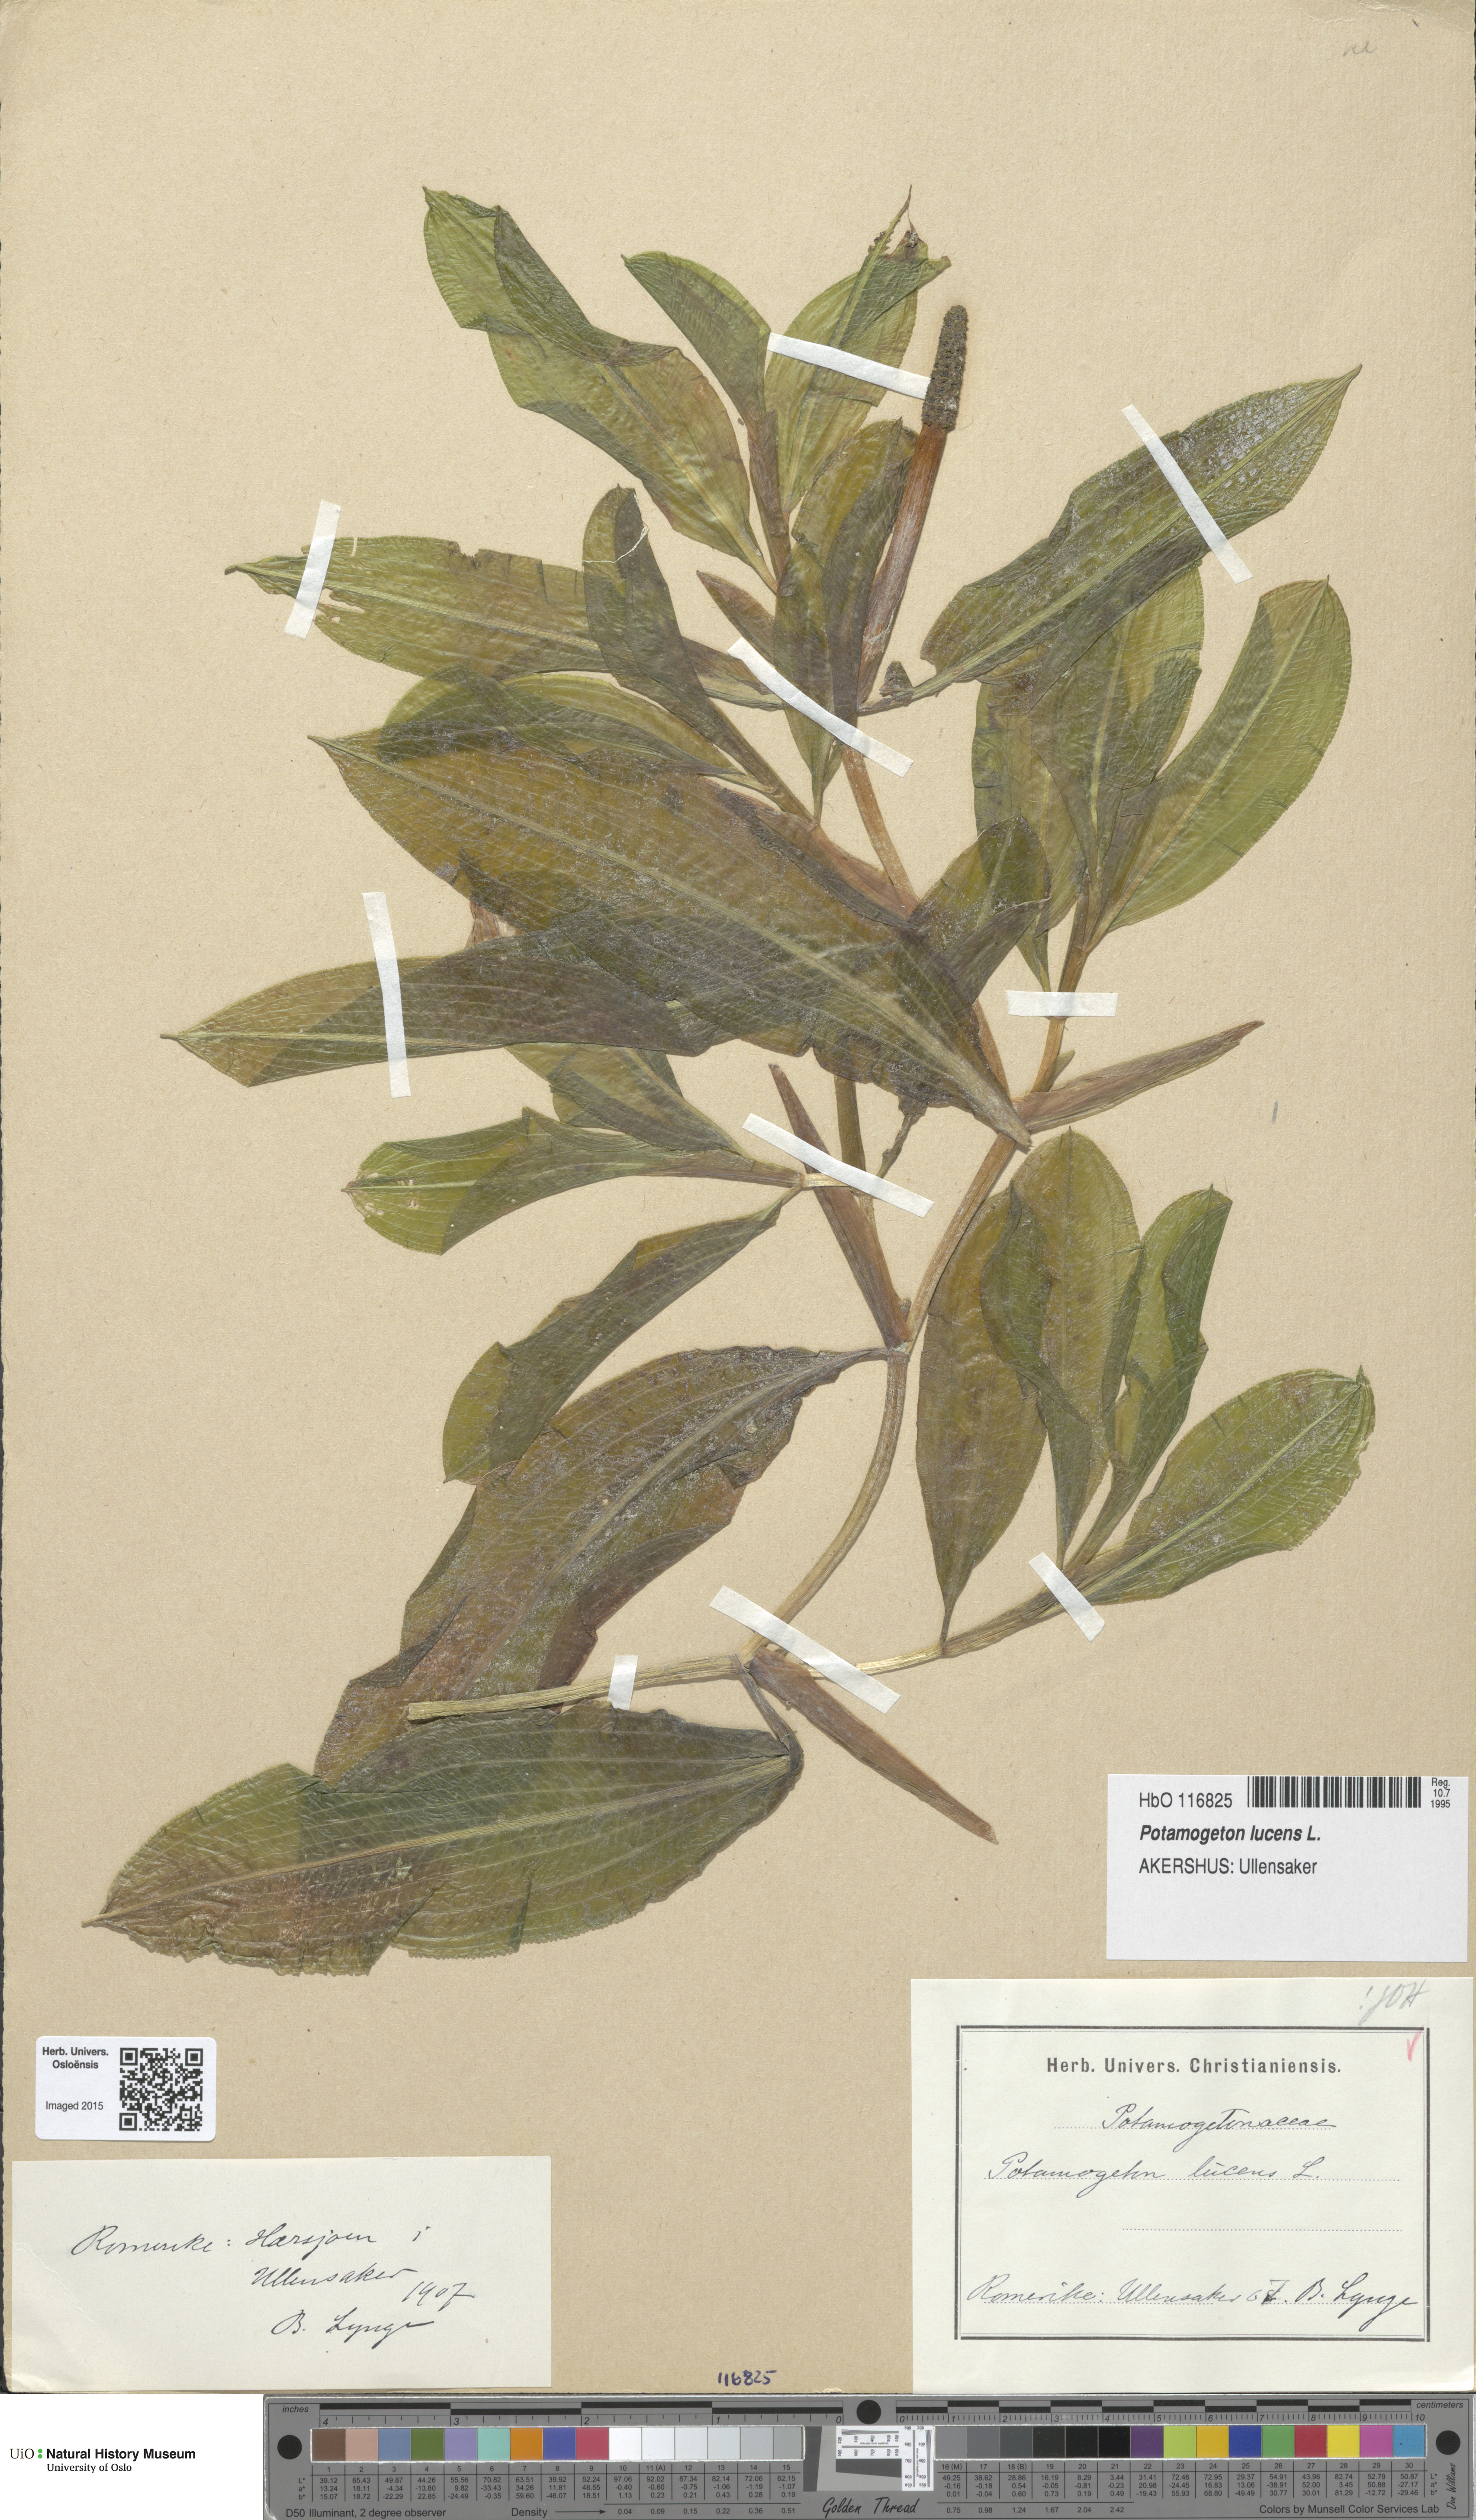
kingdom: Plantae
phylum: Tracheophyta
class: Liliopsida
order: Alismatales
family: Potamogetonaceae
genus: Potamogeton
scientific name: Potamogeton lucens
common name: Shining pondweed
